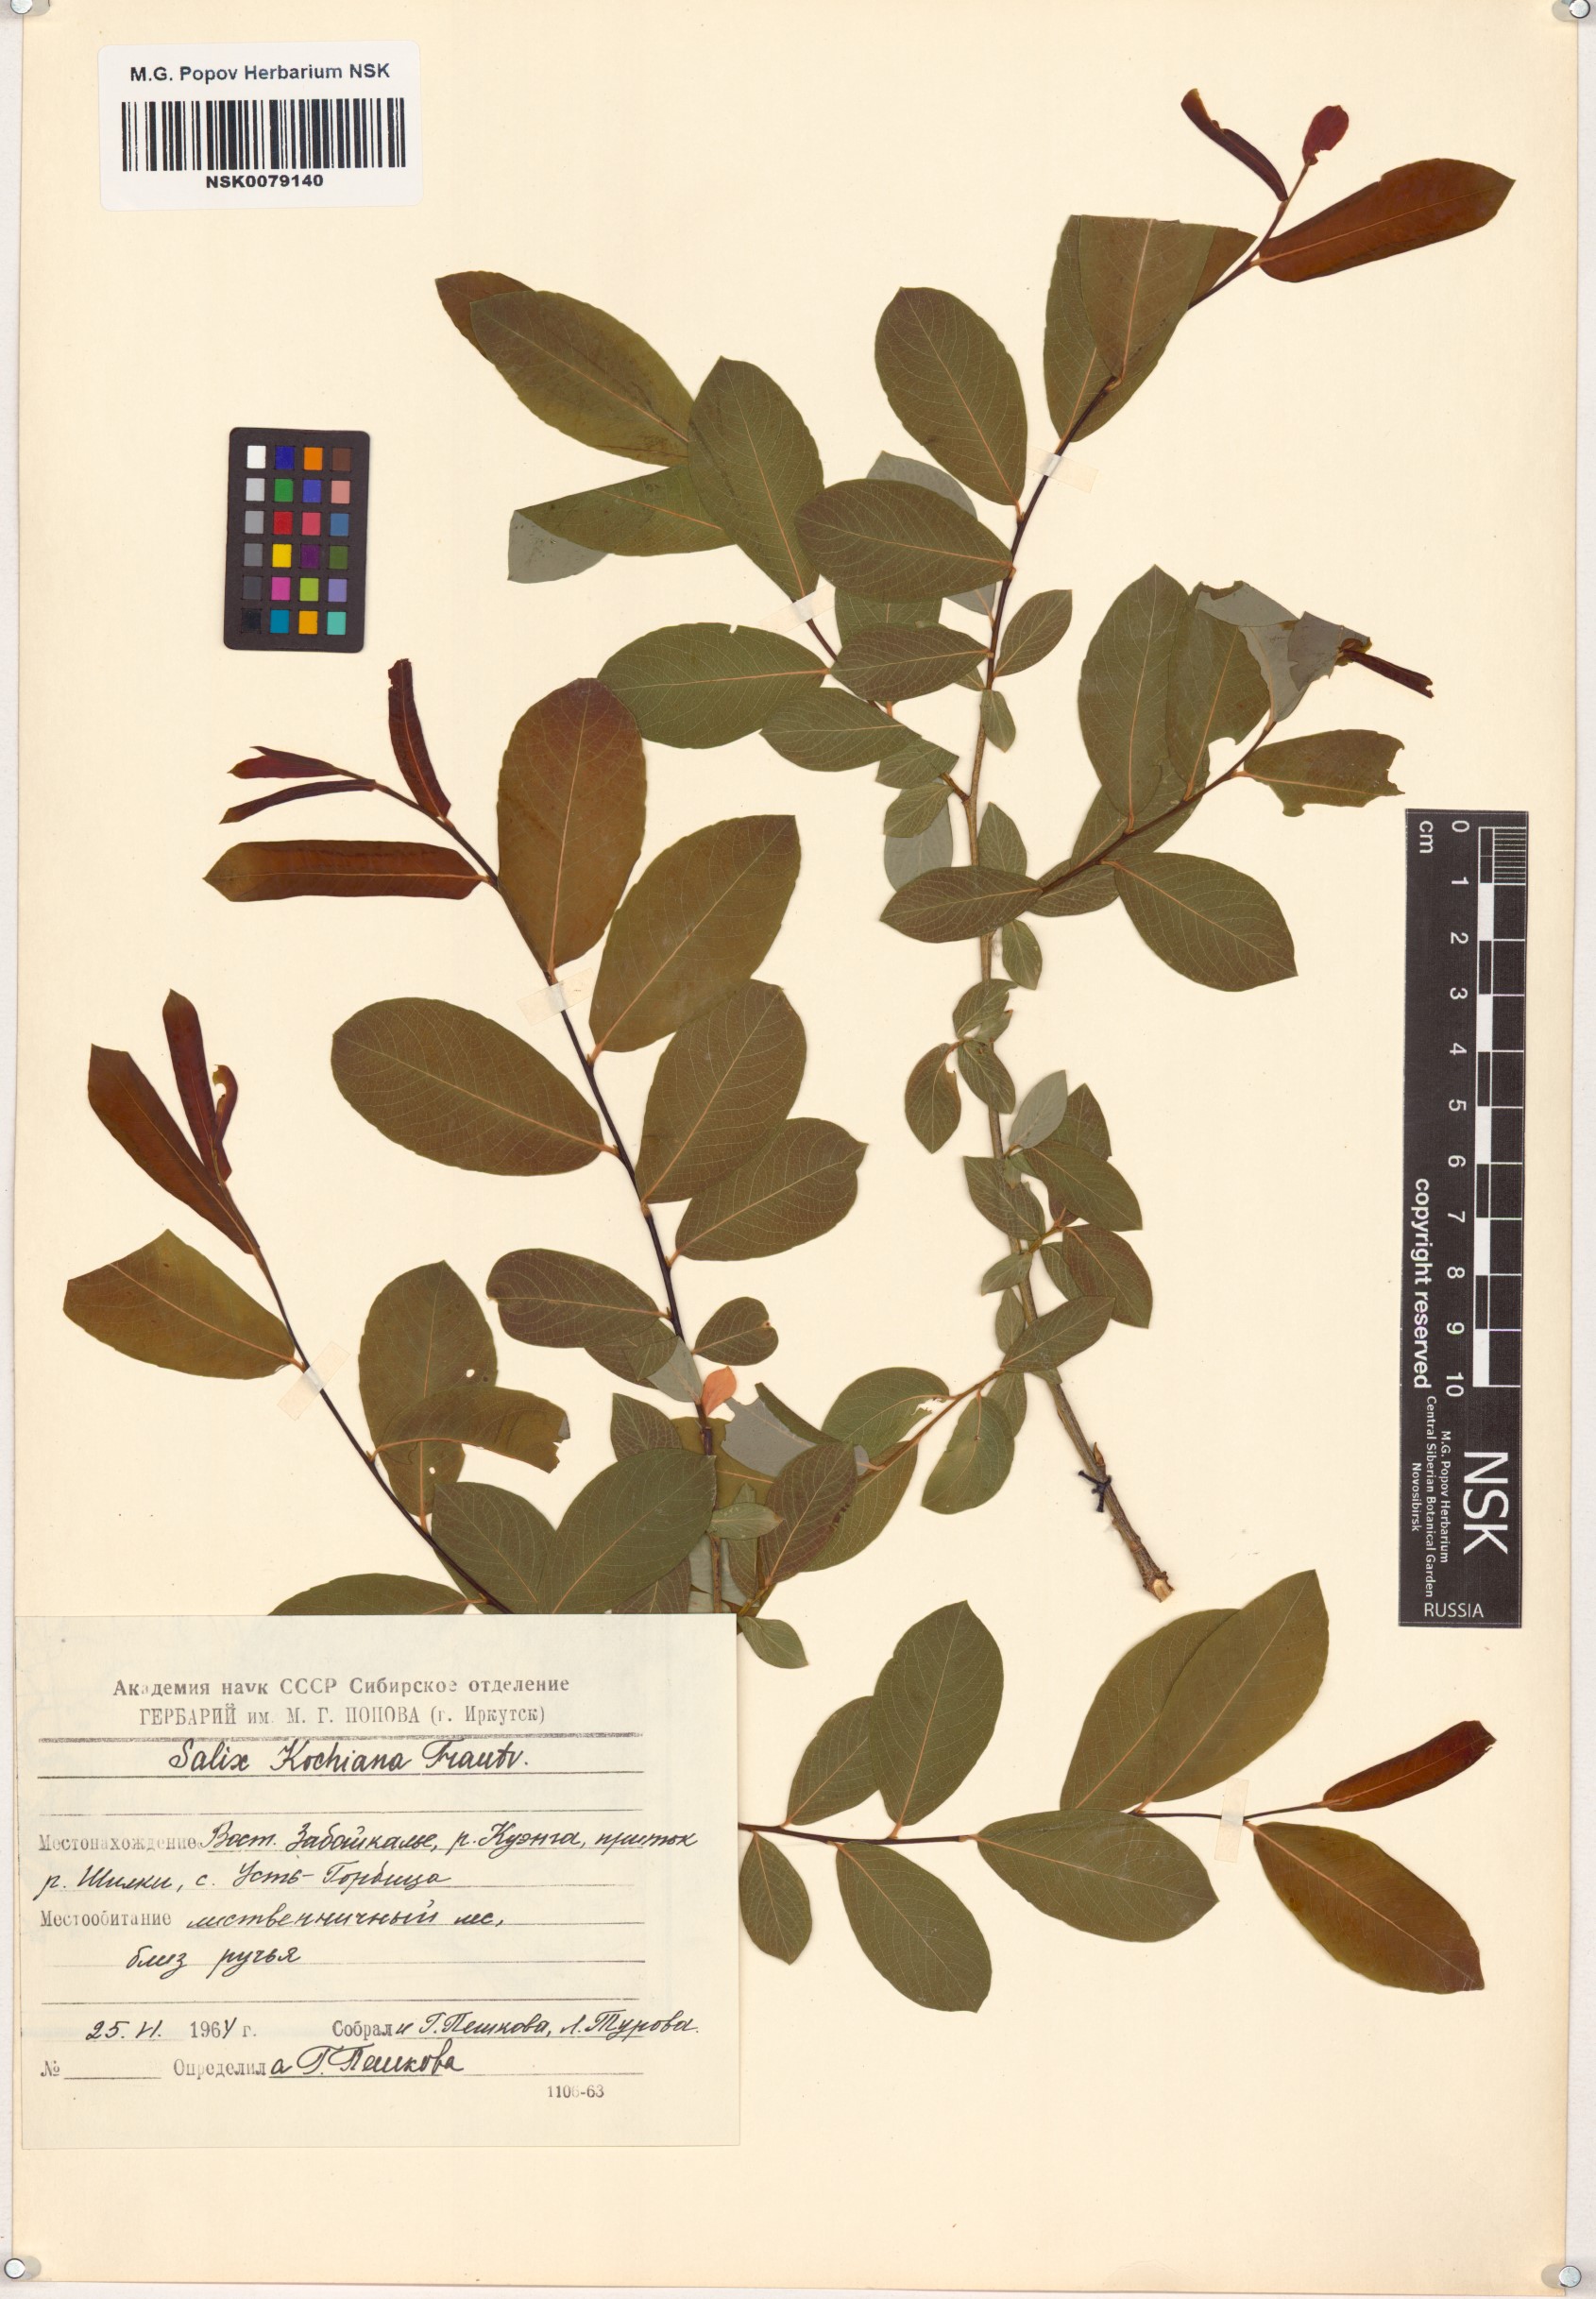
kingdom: Plantae
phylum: Tracheophyta
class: Magnoliopsida
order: Malpighiales
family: Salicaceae
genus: Salix
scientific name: Salix kochiana
